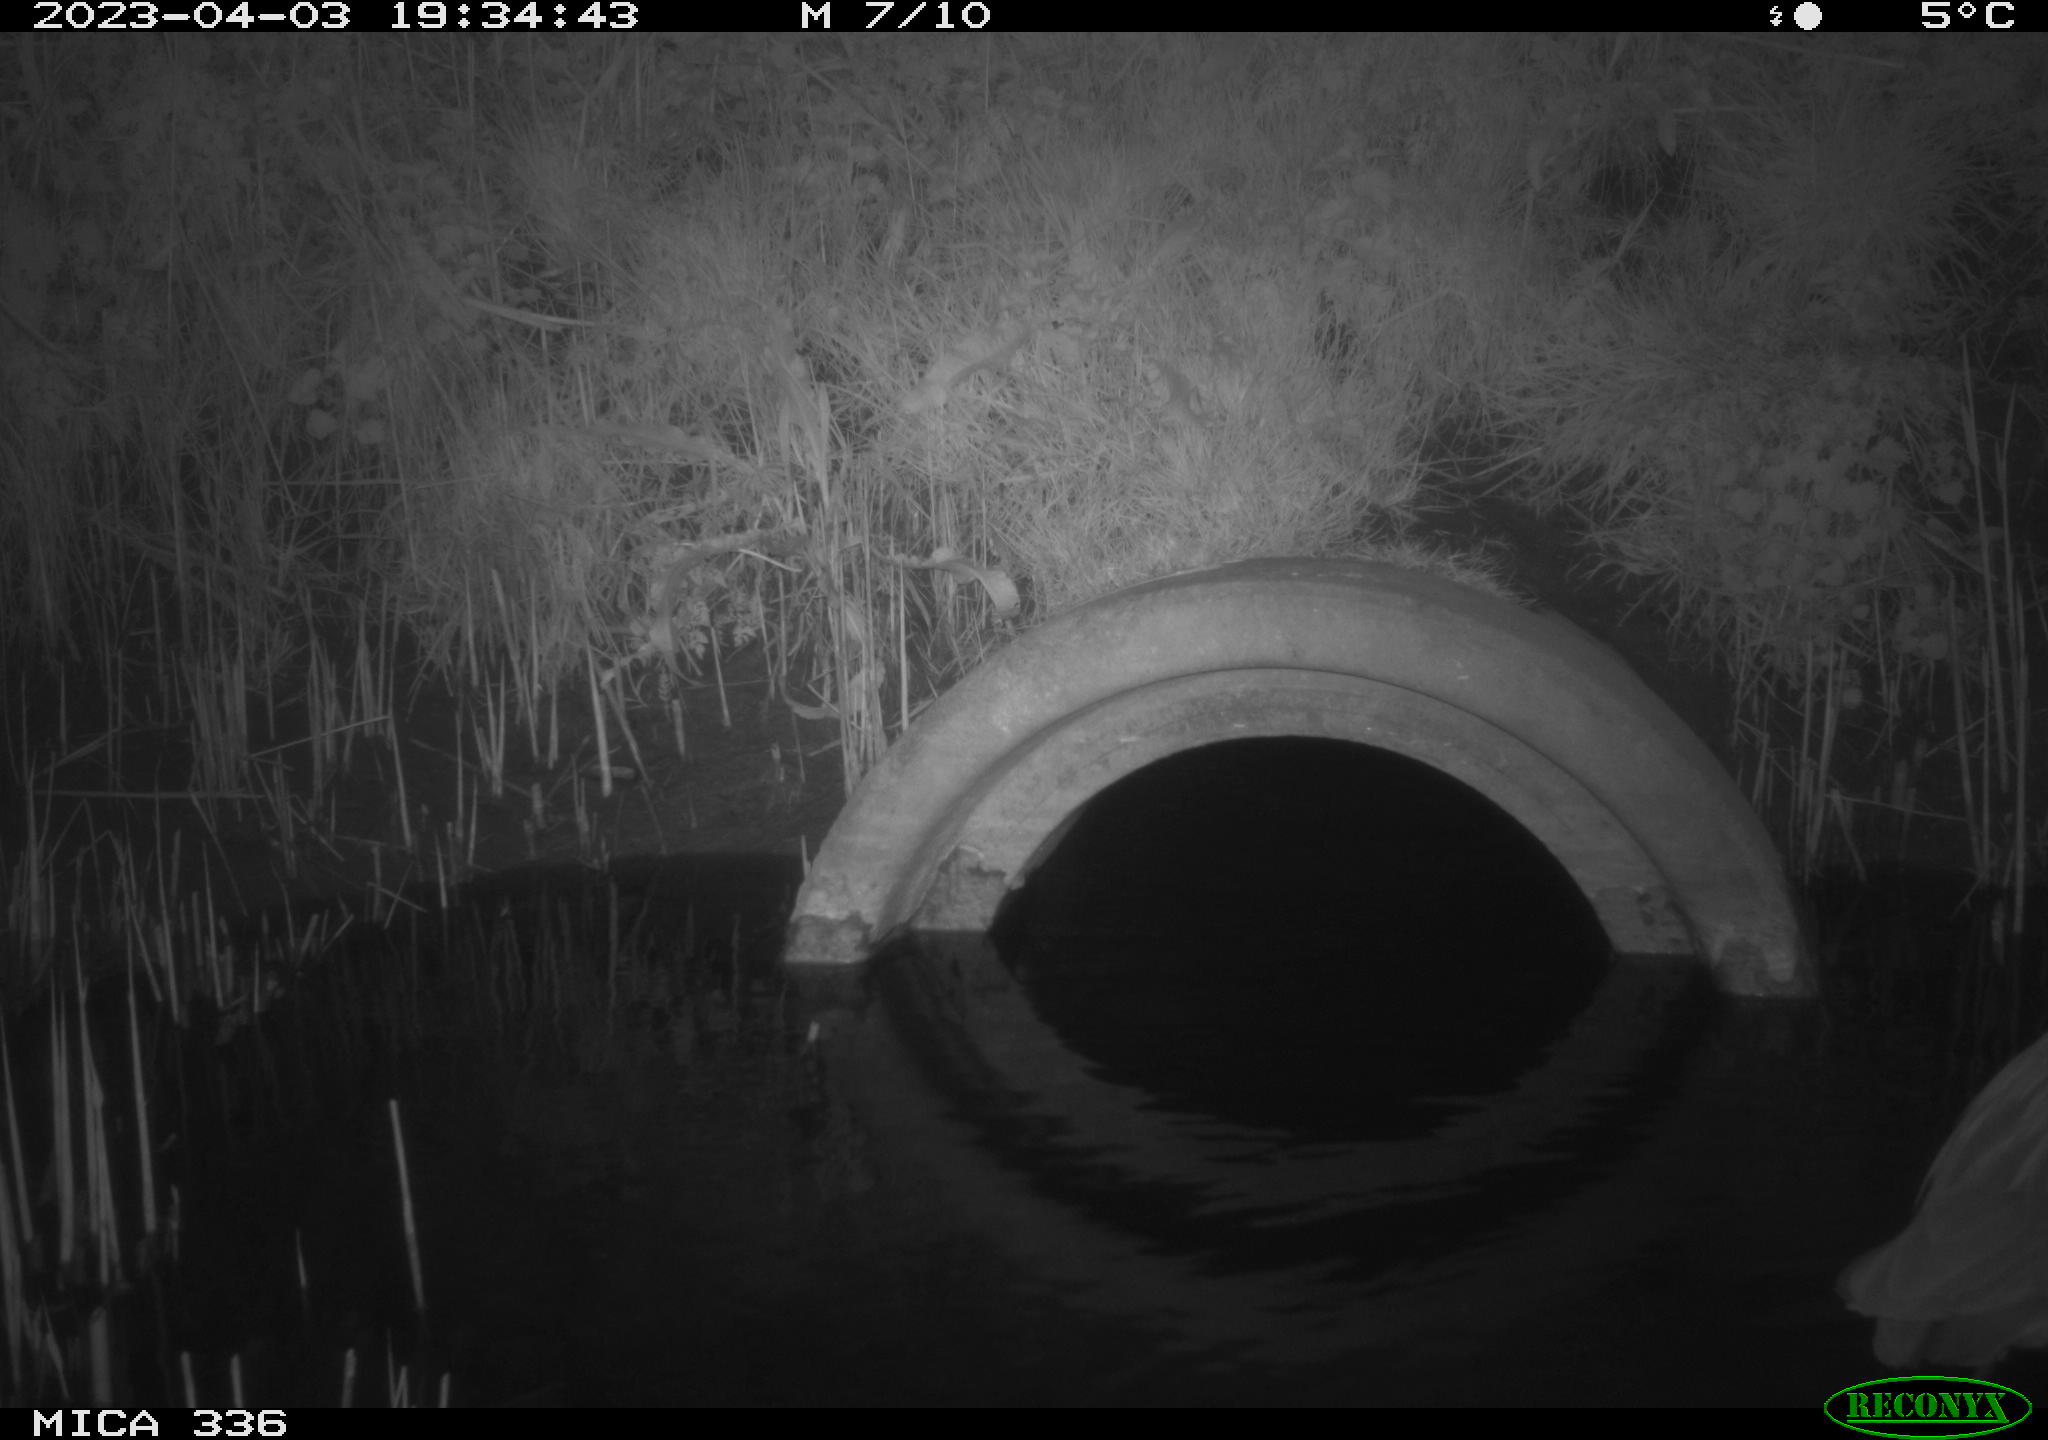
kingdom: Animalia
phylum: Chordata
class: Aves
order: Pelecaniformes
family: Ardeidae
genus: Ardea
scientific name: Ardea
